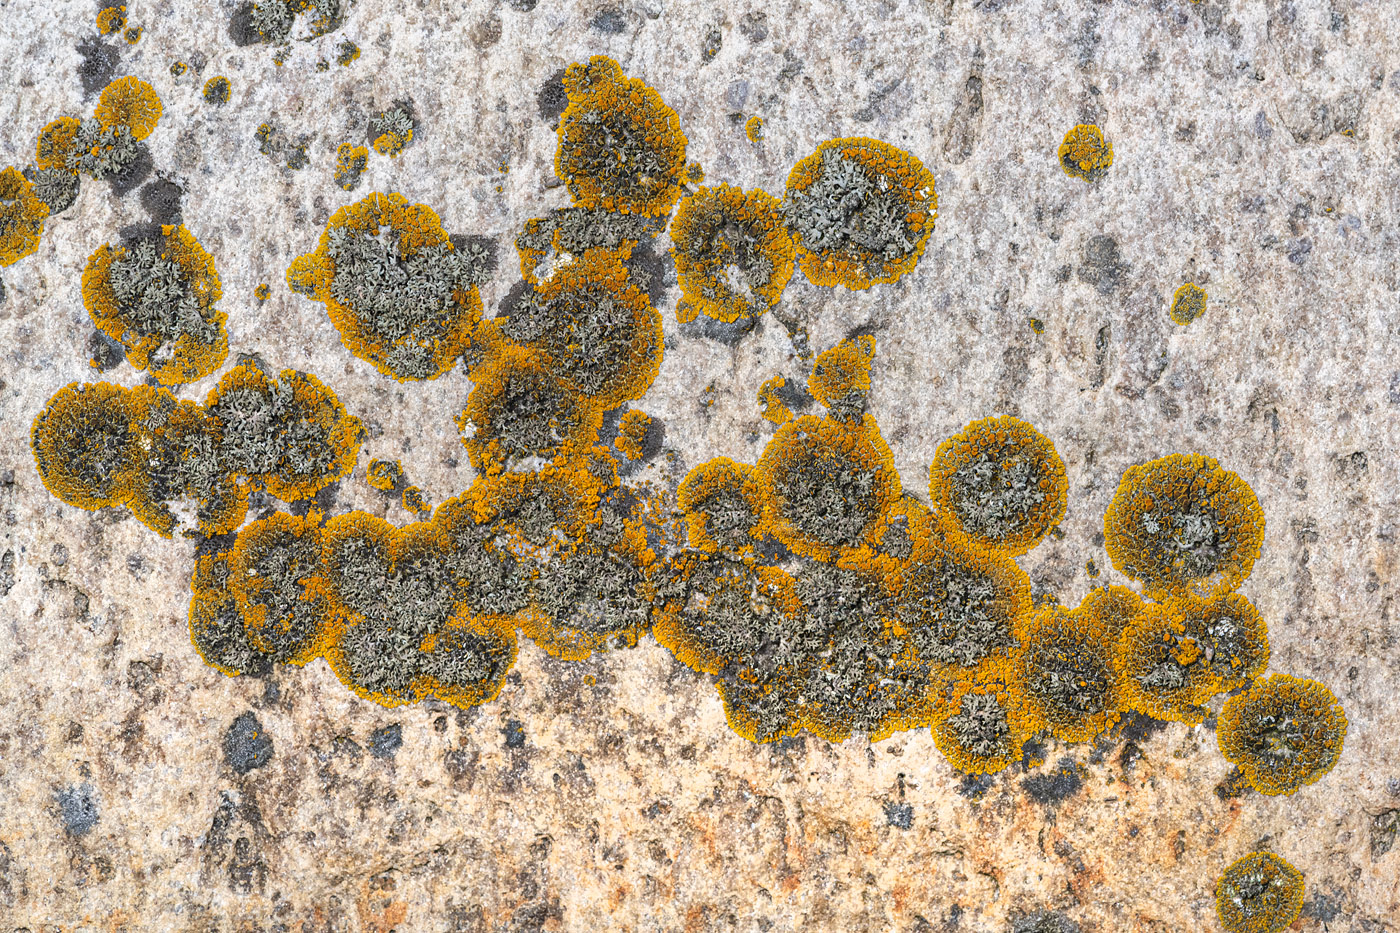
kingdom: Fungi
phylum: Ascomycota
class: Lecanoromycetes
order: Teloschistales
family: Teloschistaceae
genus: Athallia
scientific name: Athallia scopularis
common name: klippe-orangelav
